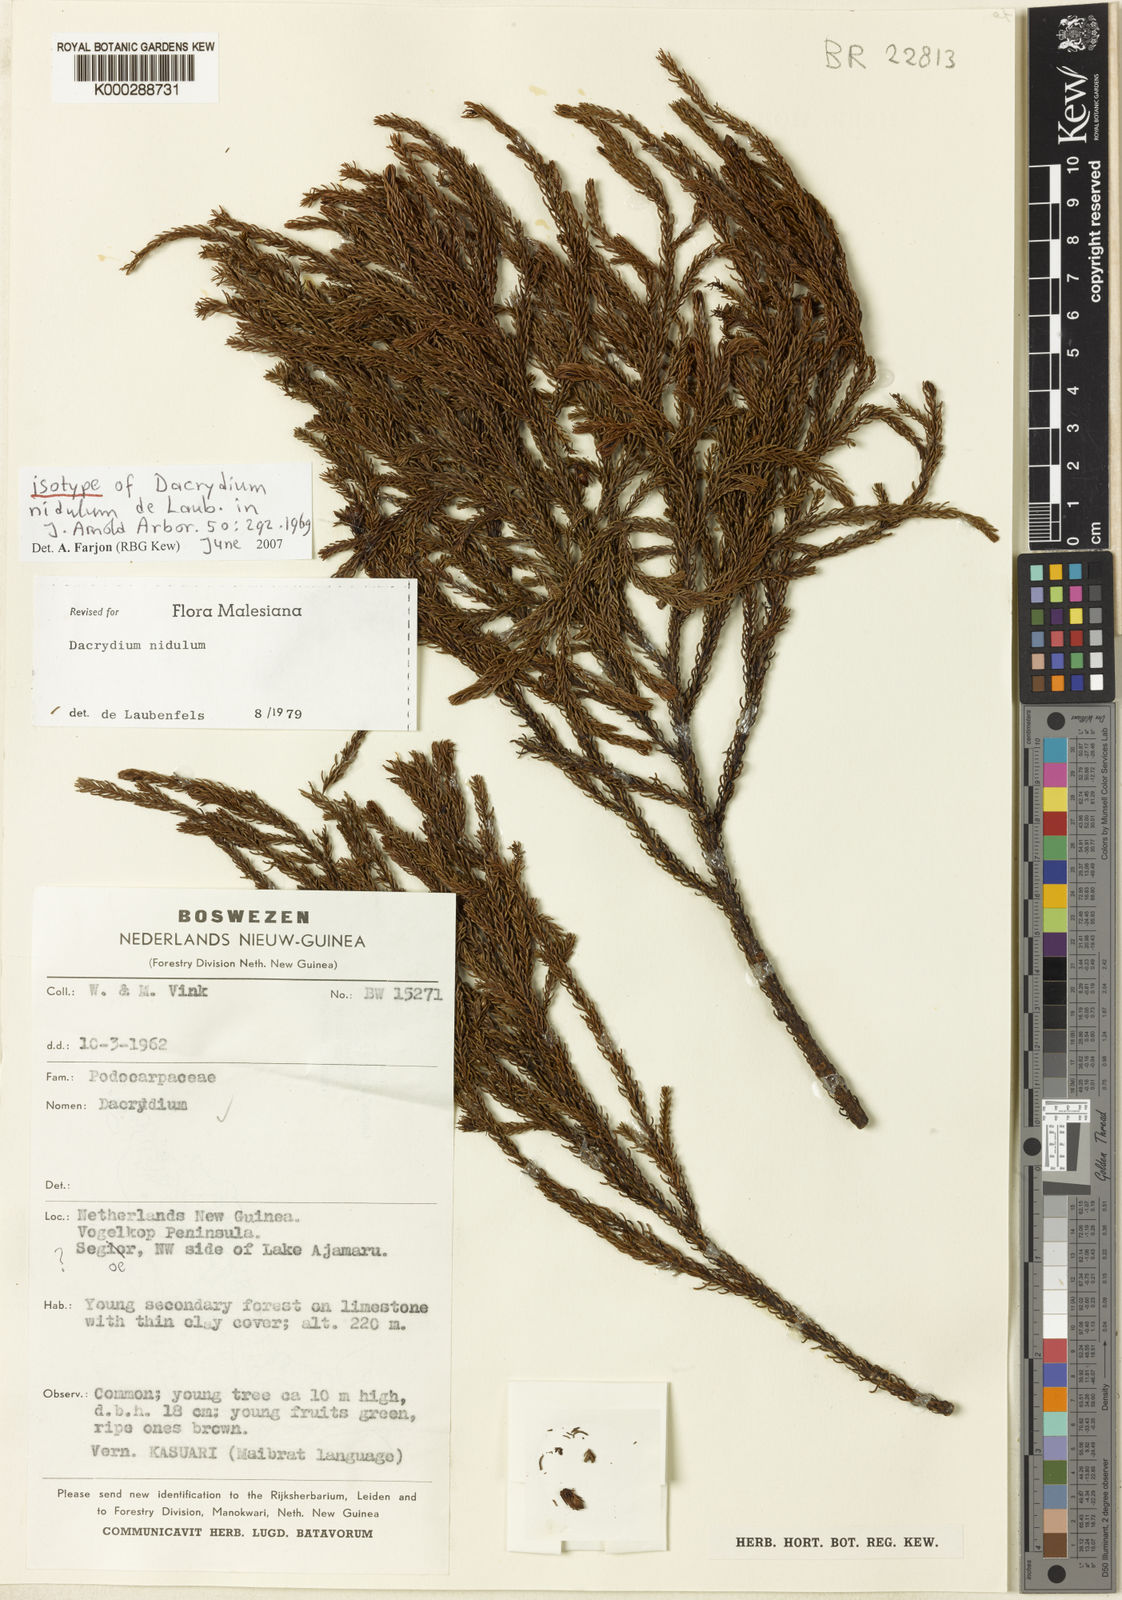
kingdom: Plantae
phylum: Tracheophyta
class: Pinopsida
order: Pinales
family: Podocarpaceae
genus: Dacrydium
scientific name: Dacrydium nidulum
